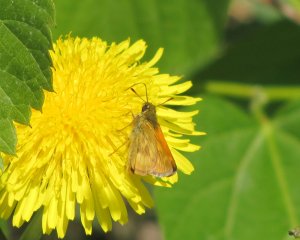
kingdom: Animalia
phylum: Arthropoda
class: Insecta
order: Lepidoptera
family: Hesperiidae
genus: Polites
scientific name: Polites
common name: Long Dash Skipper
